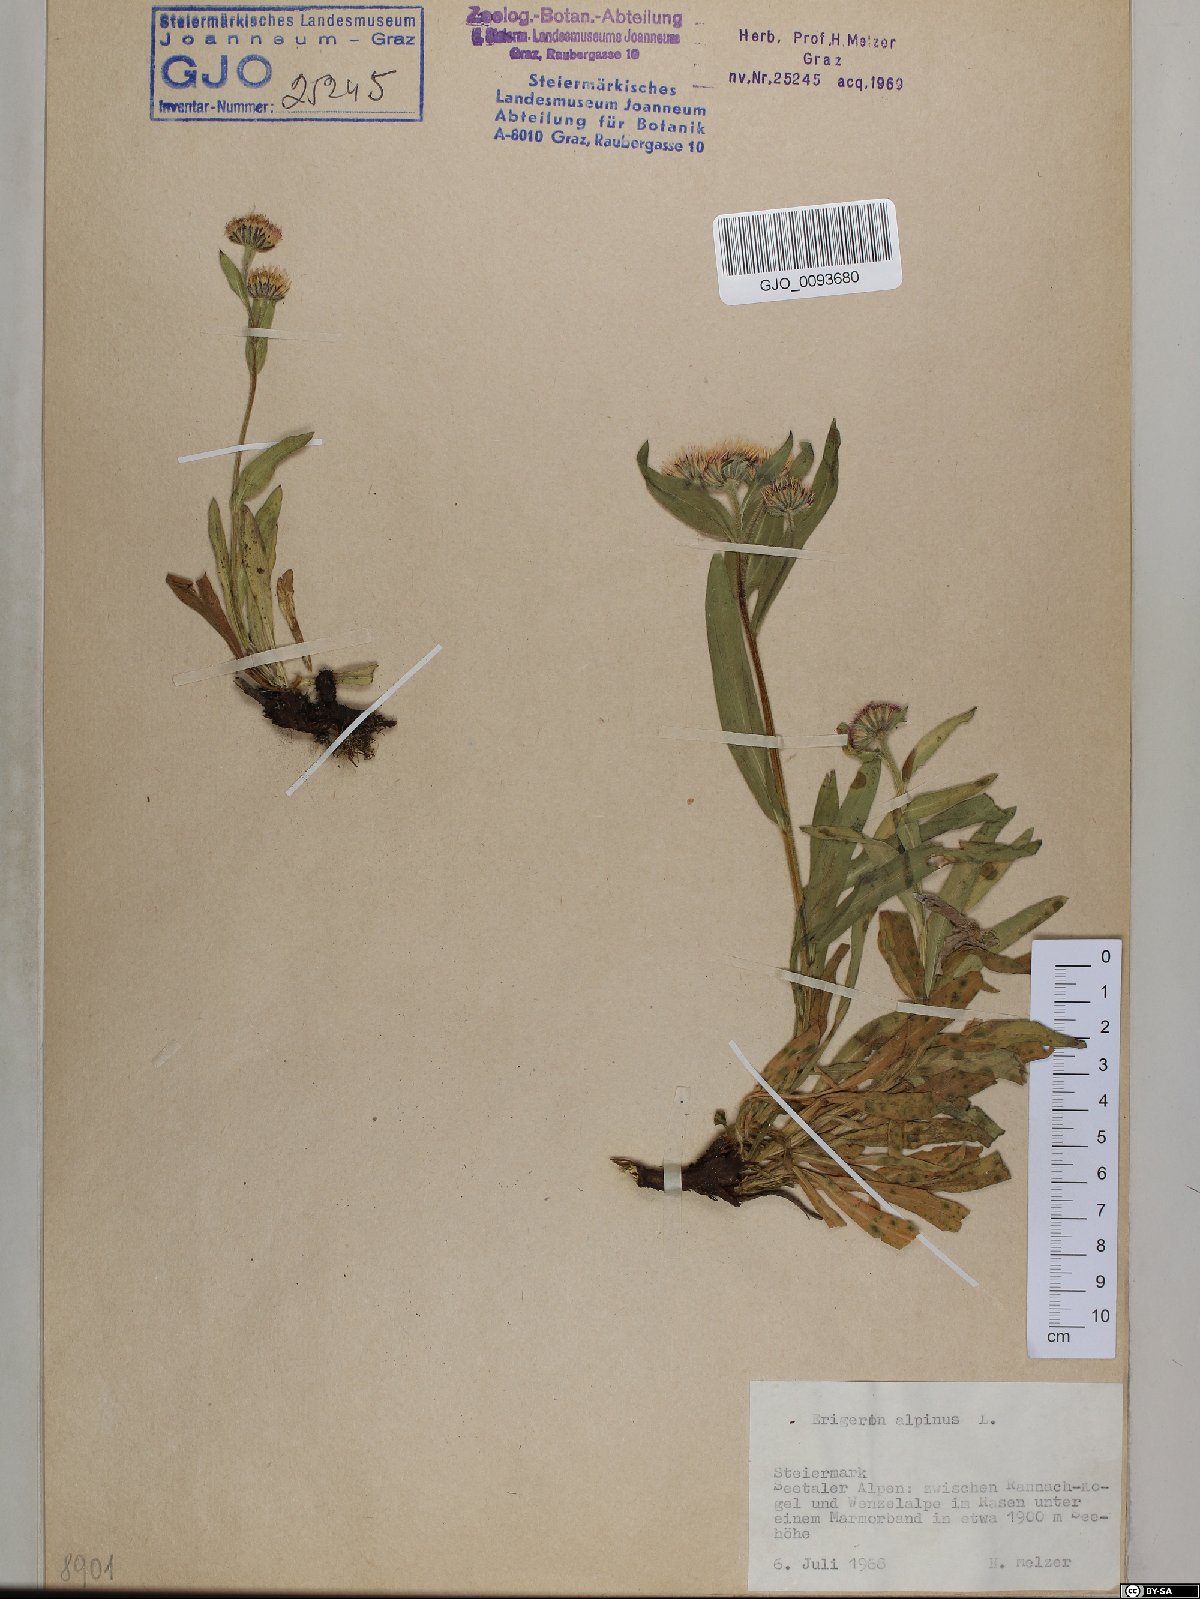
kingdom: Plantae
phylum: Tracheophyta
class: Magnoliopsida
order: Asterales
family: Asteraceae
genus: Erigeron
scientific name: Erigeron alpinus
